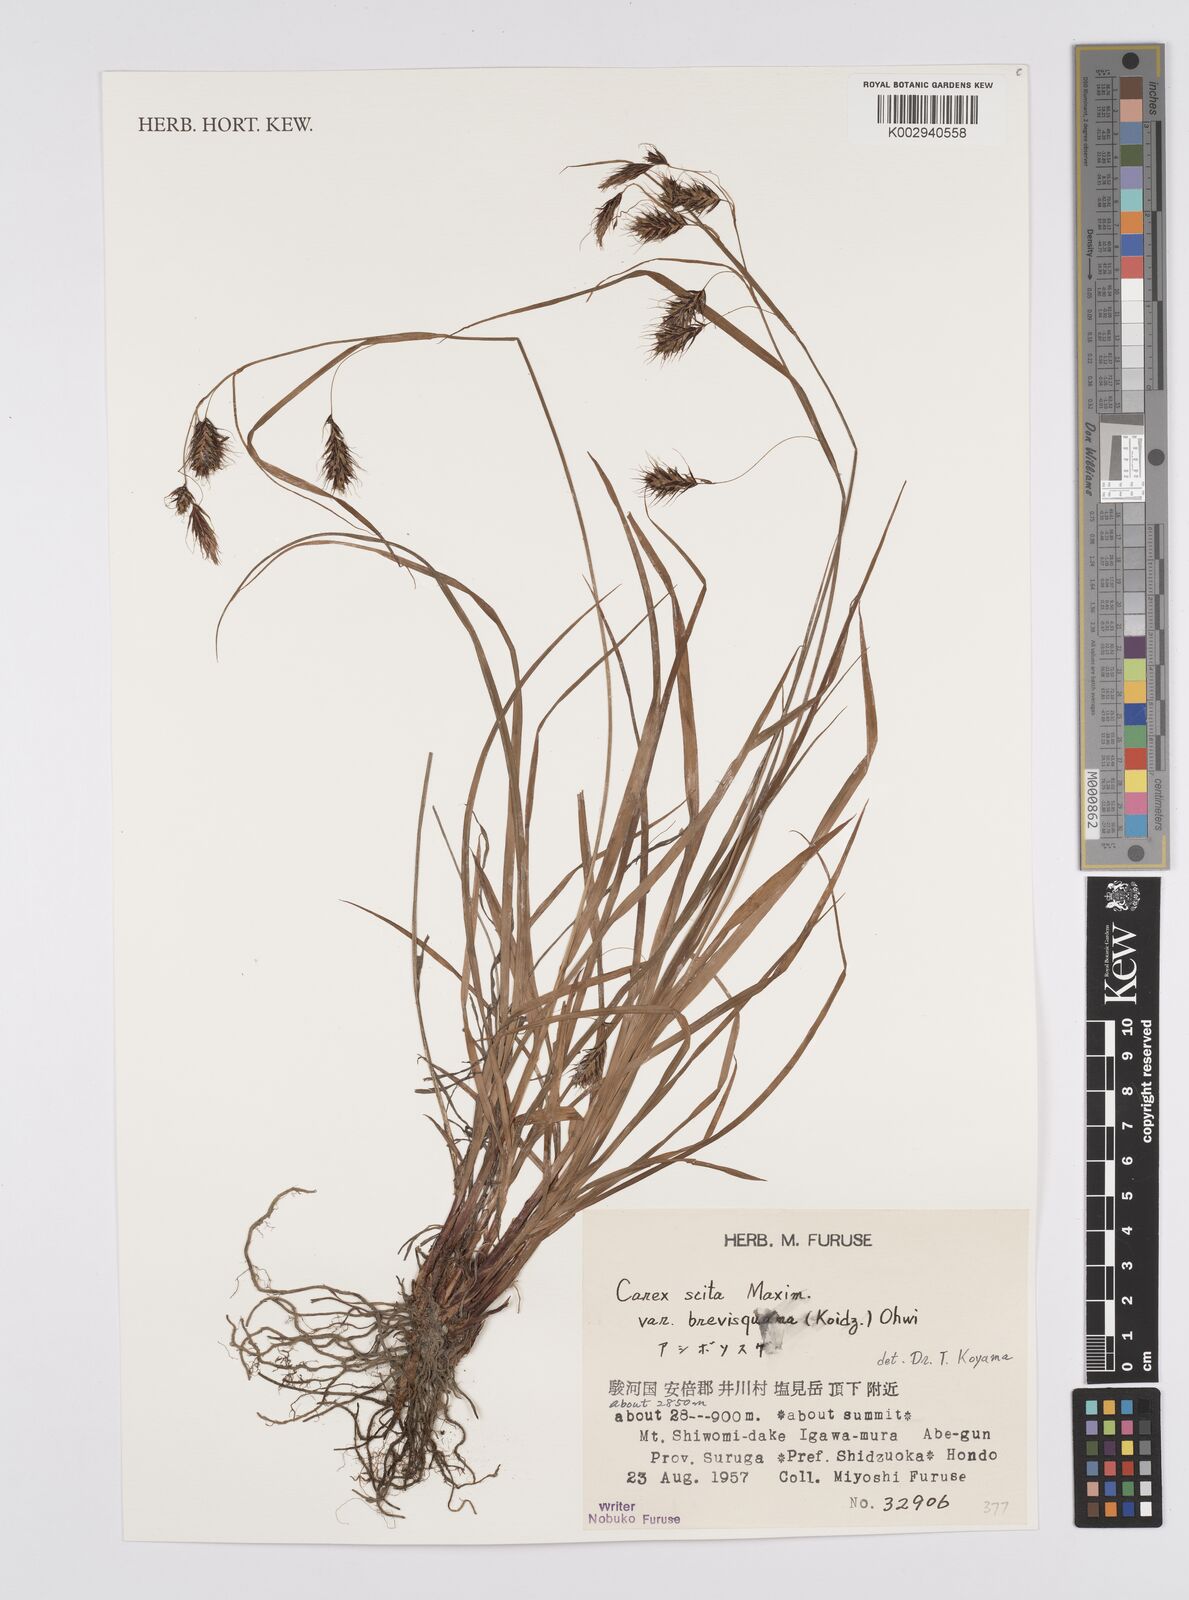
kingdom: Plantae
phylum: Tracheophyta
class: Liliopsida
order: Poales
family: Cyperaceae
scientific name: Cyperaceae
